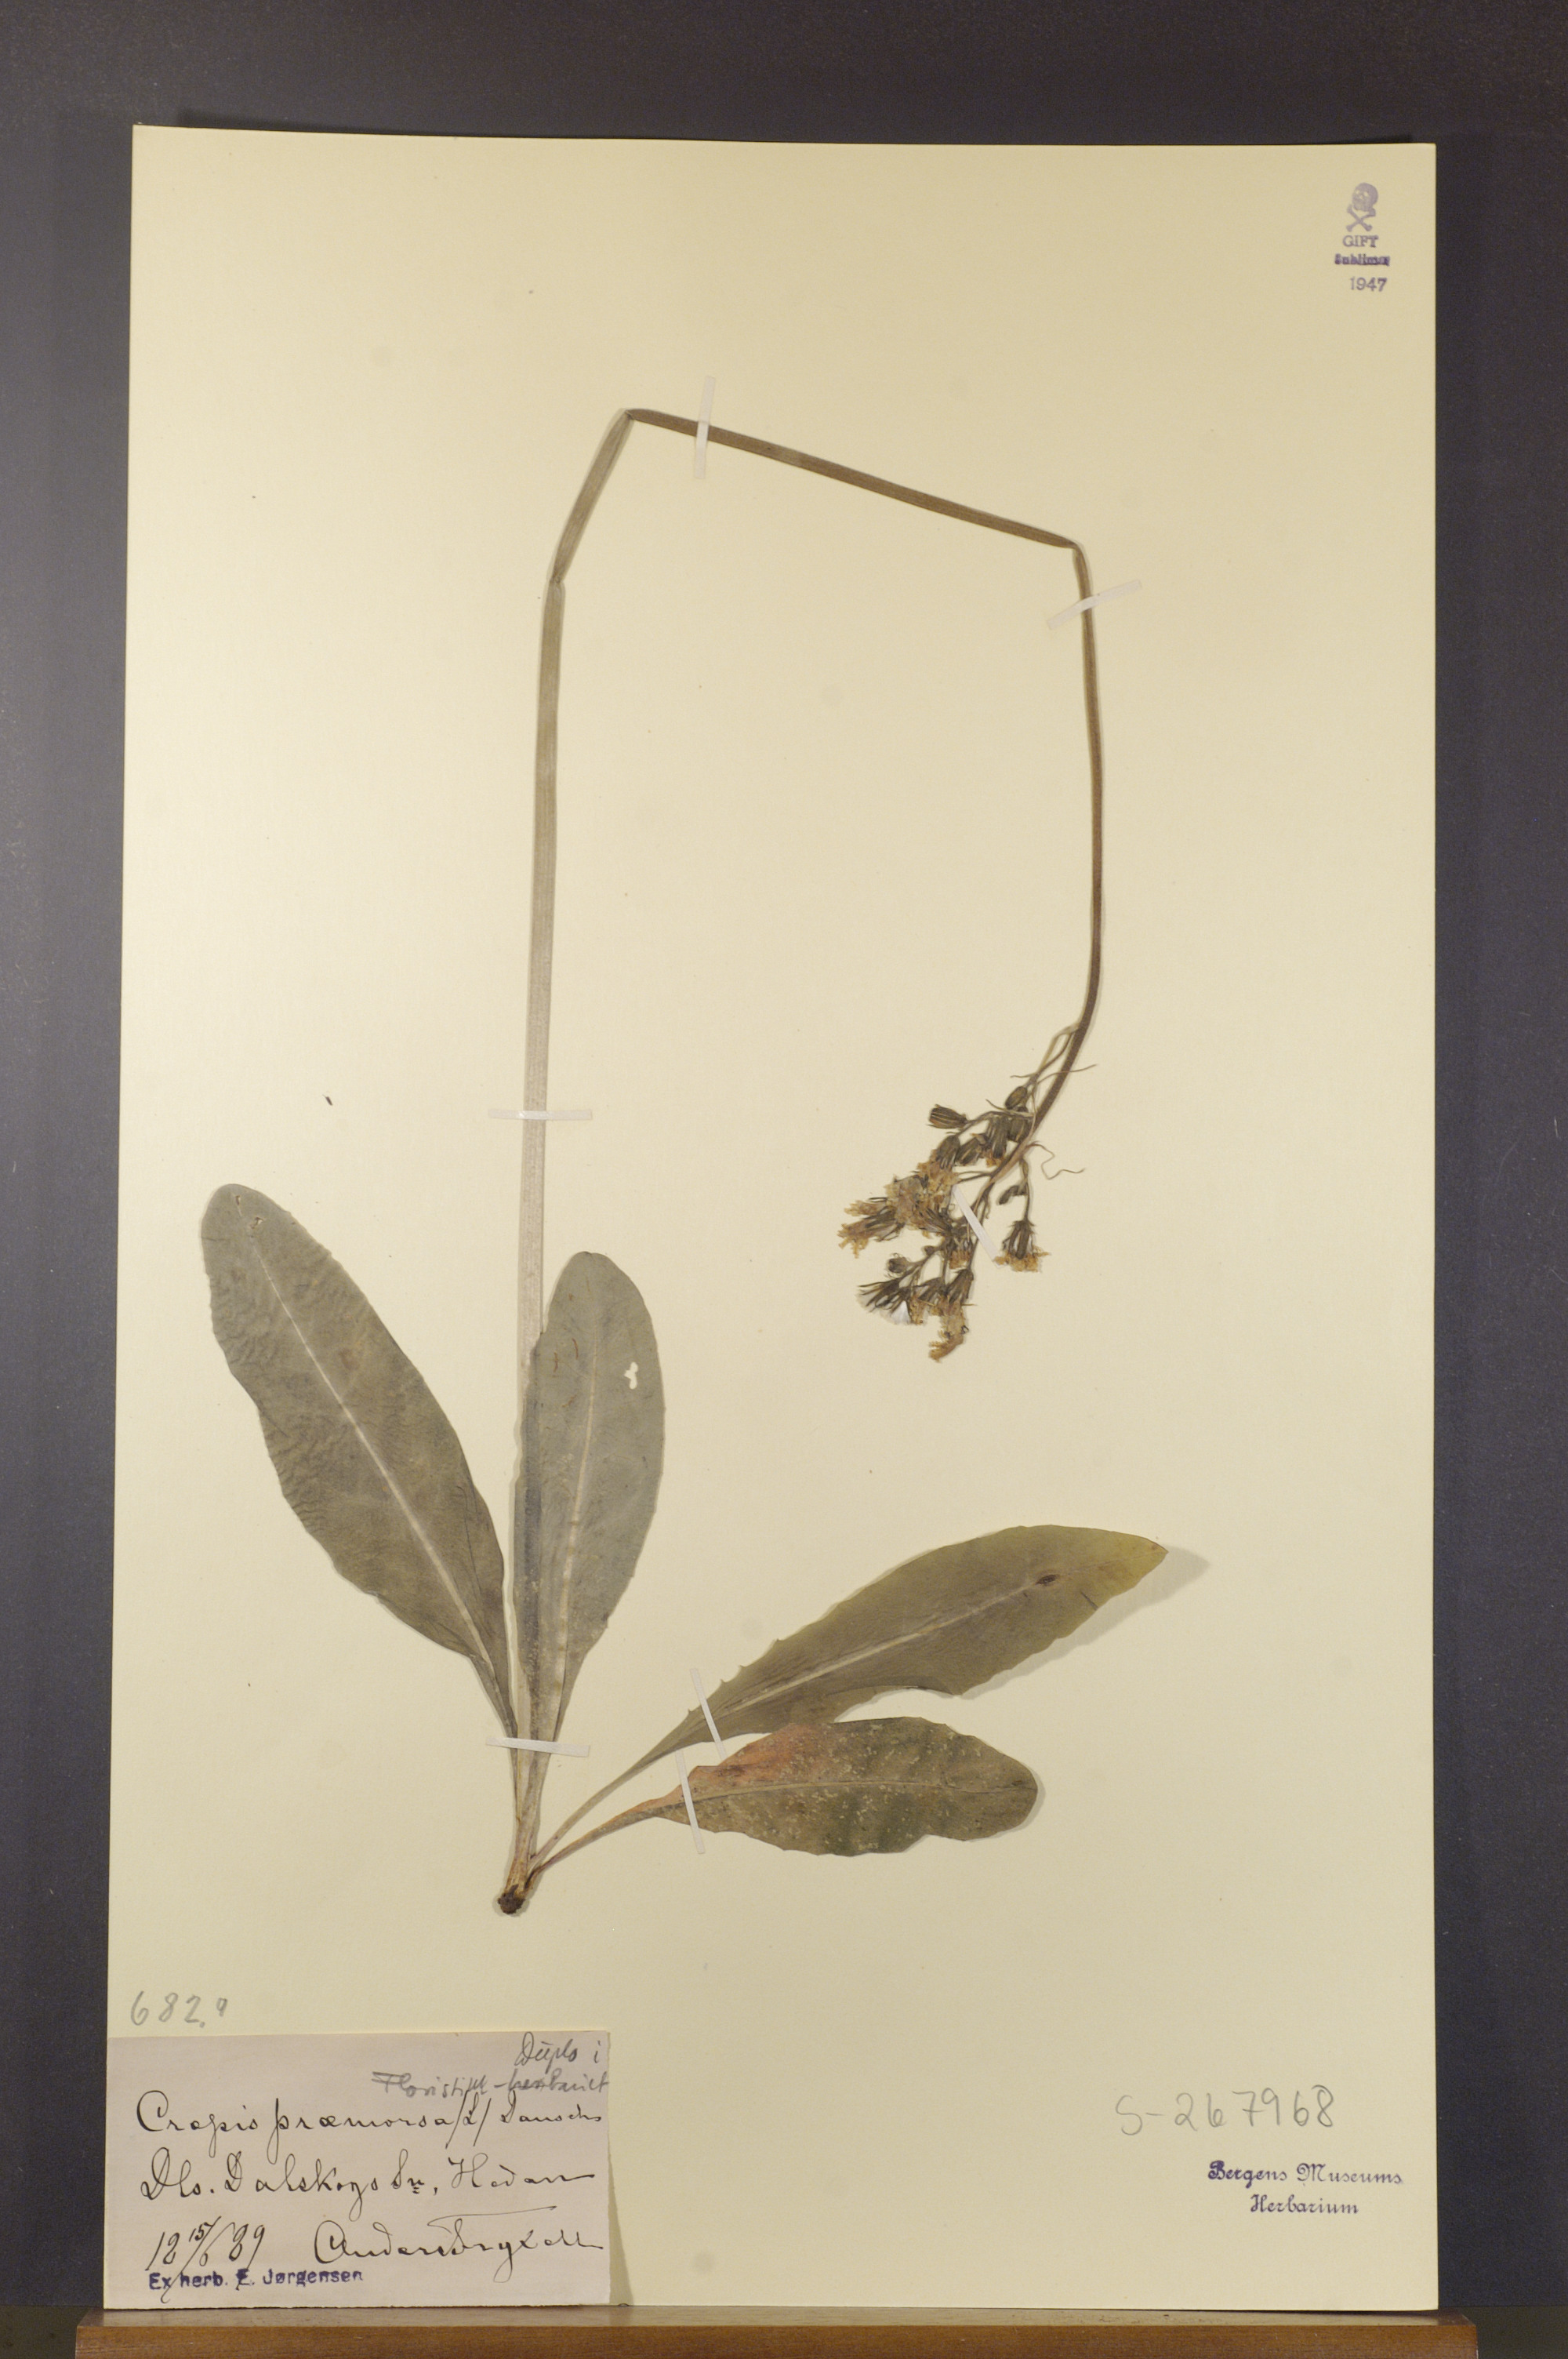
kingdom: Plantae
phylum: Tracheophyta
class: Magnoliopsida
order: Asterales
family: Asteraceae
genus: Crepis
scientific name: Crepis praemorsa
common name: Leafless hawk's-beard
